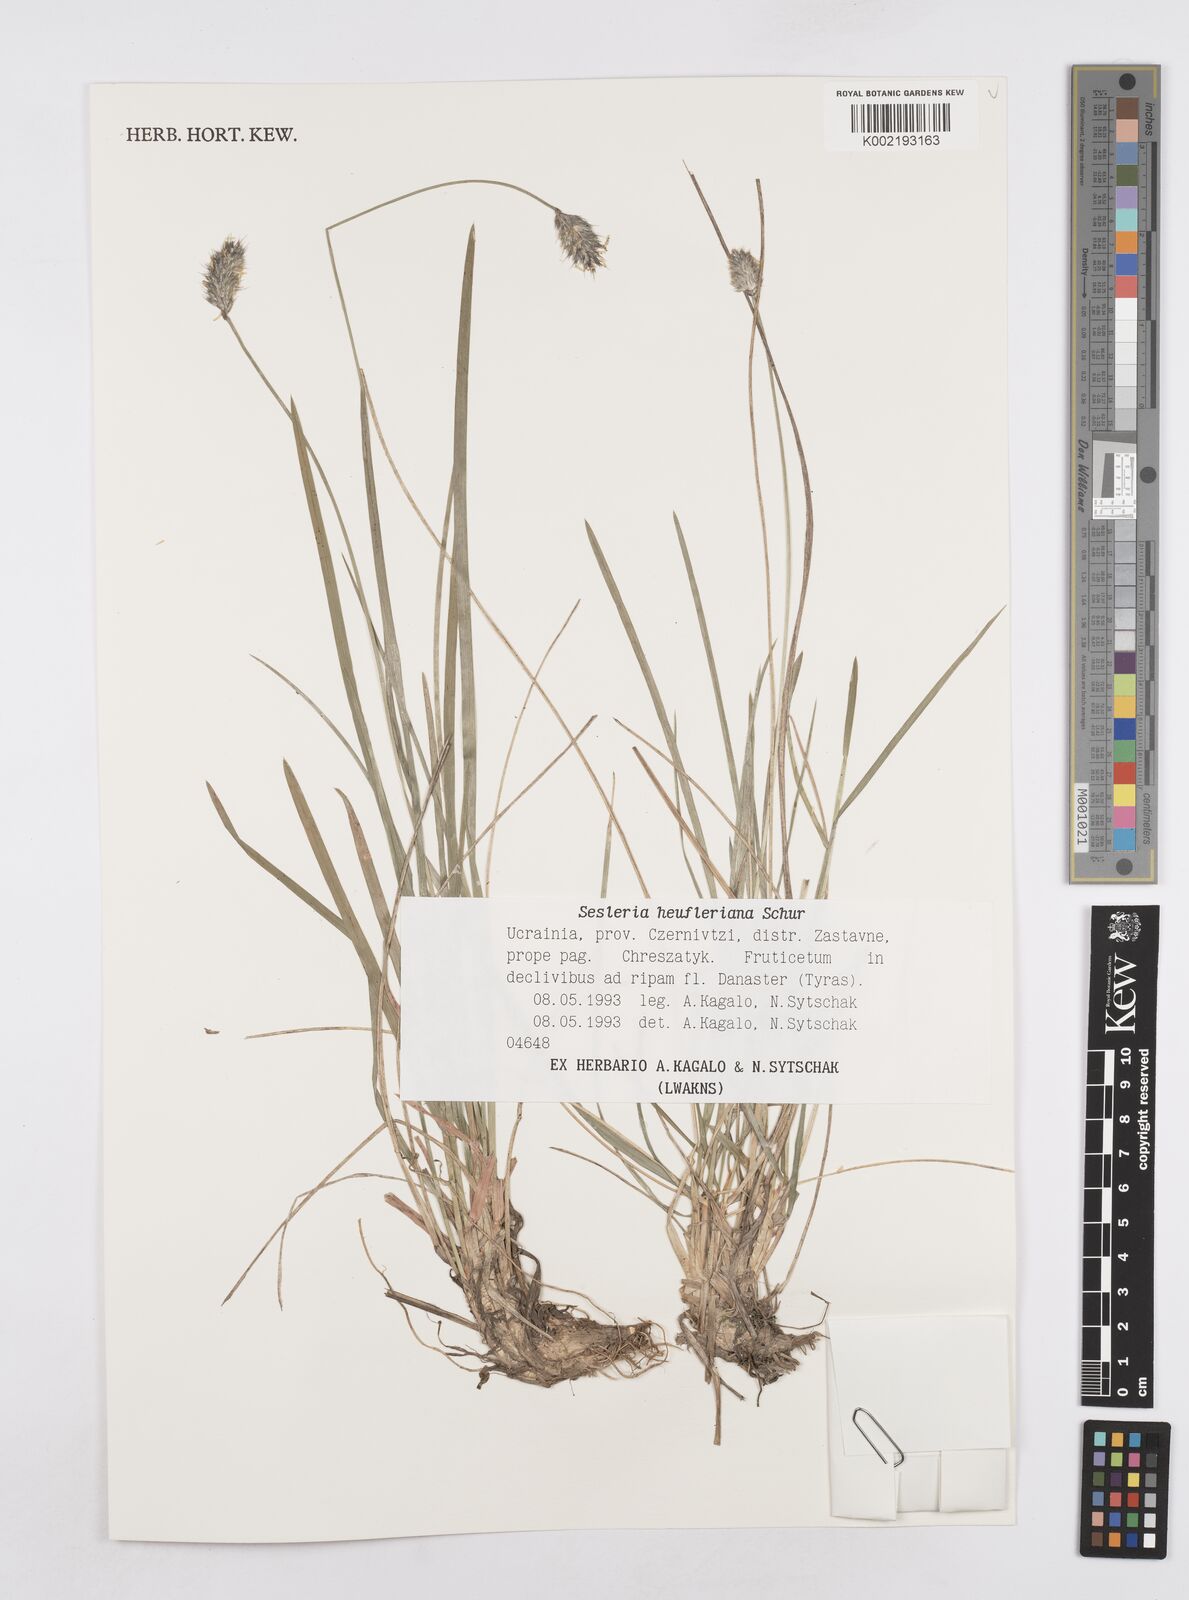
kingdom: Plantae
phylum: Tracheophyta
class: Liliopsida
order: Poales
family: Poaceae
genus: Sesleria
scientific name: Sesleria heufleriana
